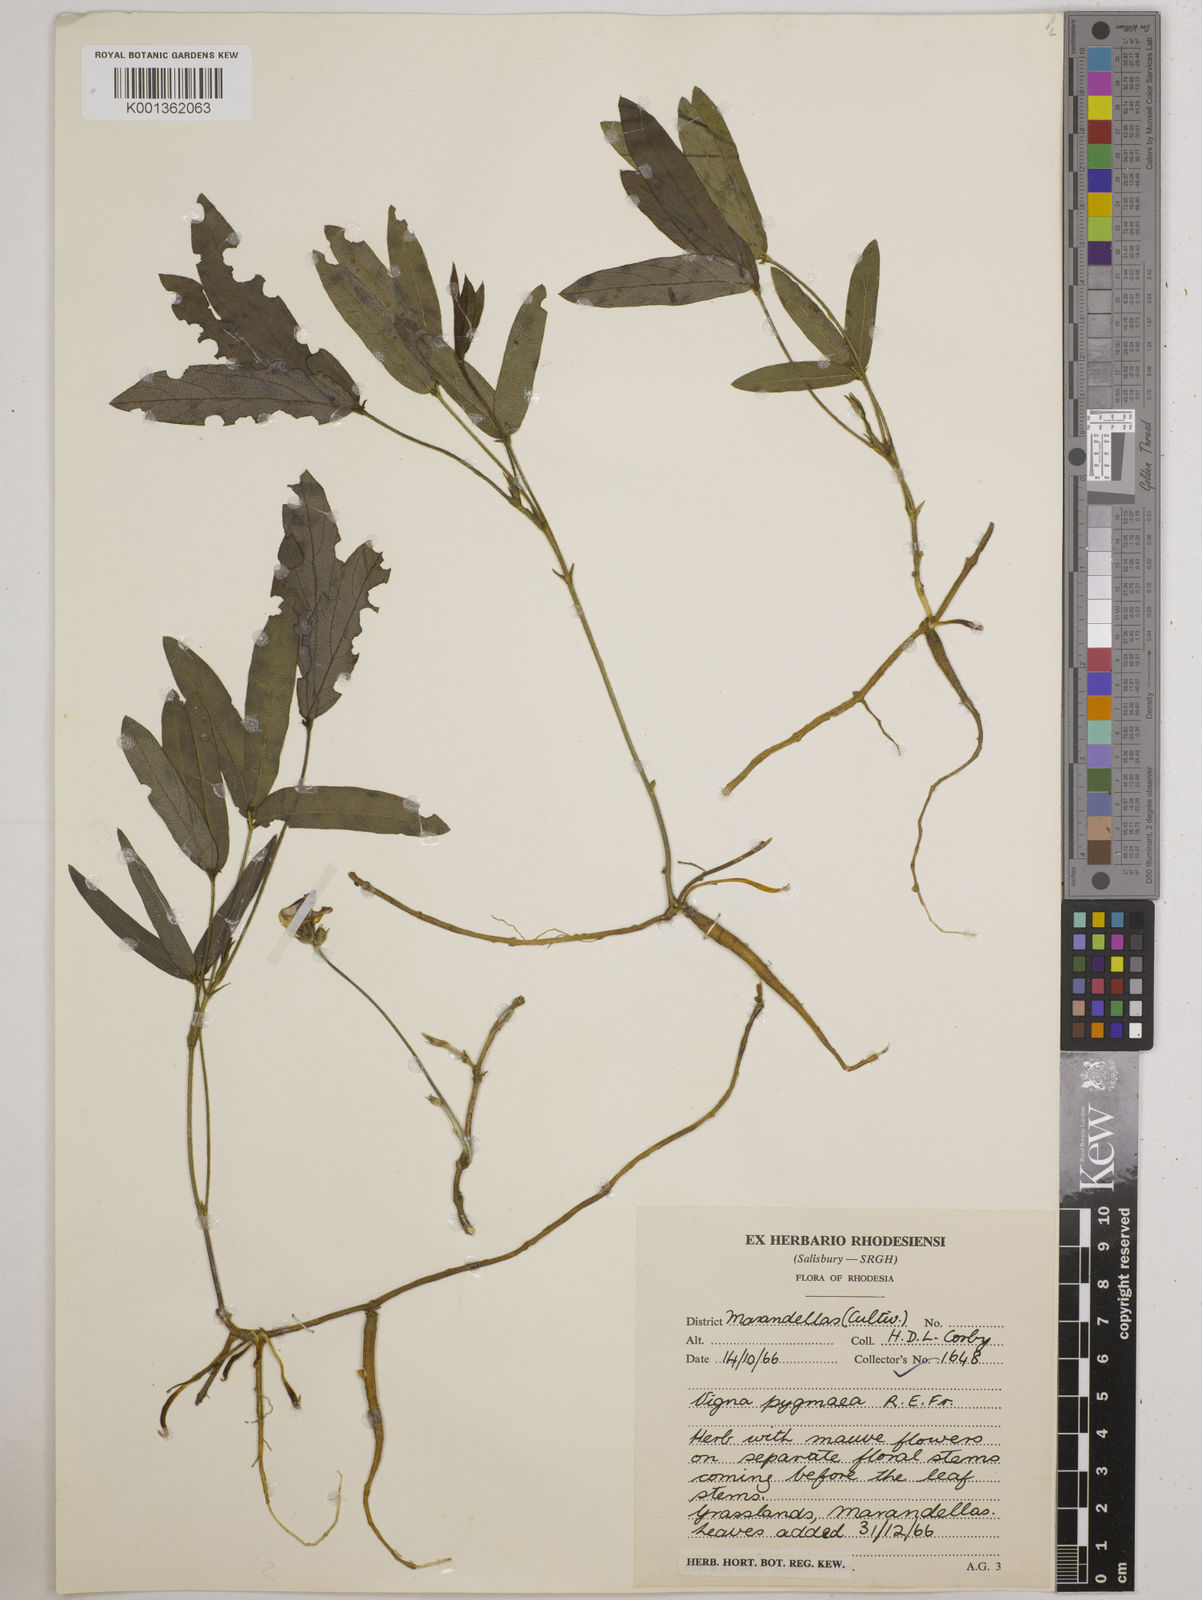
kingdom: Plantae
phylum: Tracheophyta
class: Magnoliopsida
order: Fabales
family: Fabaceae
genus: Vigna
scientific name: Vigna pygmaea
